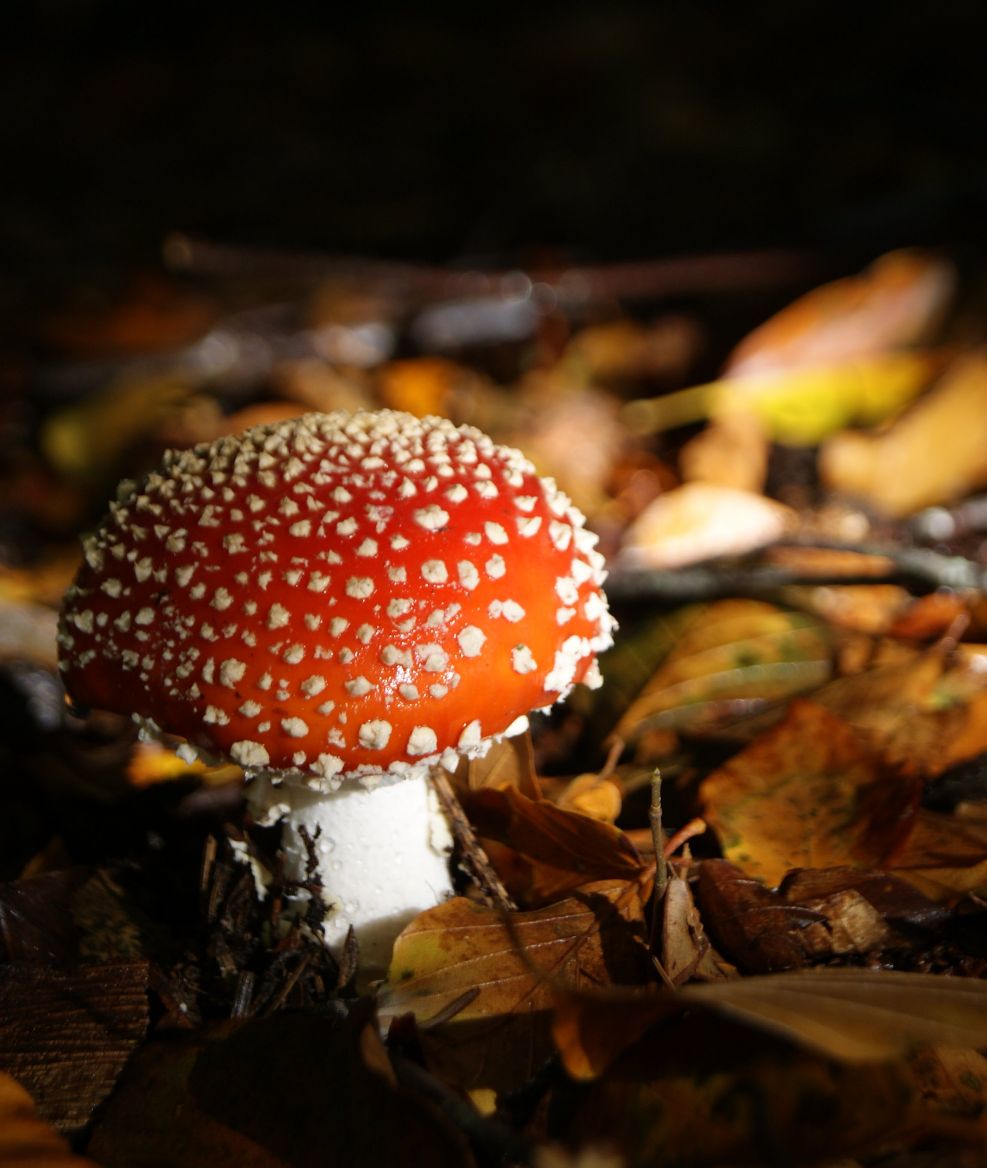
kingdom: Fungi
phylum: Basidiomycota
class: Agaricomycetes
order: Agaricales
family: Amanitaceae
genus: Amanita
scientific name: Amanita muscaria
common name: rød fluesvamp
